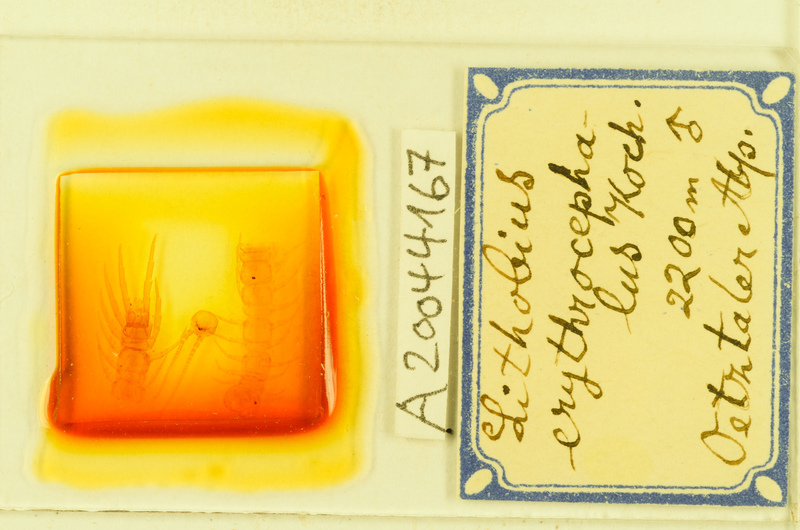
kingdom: Animalia
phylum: Arthropoda
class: Chilopoda
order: Lithobiomorpha
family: Lithobiidae
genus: Lithobius
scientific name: Lithobius erythrocephalus
